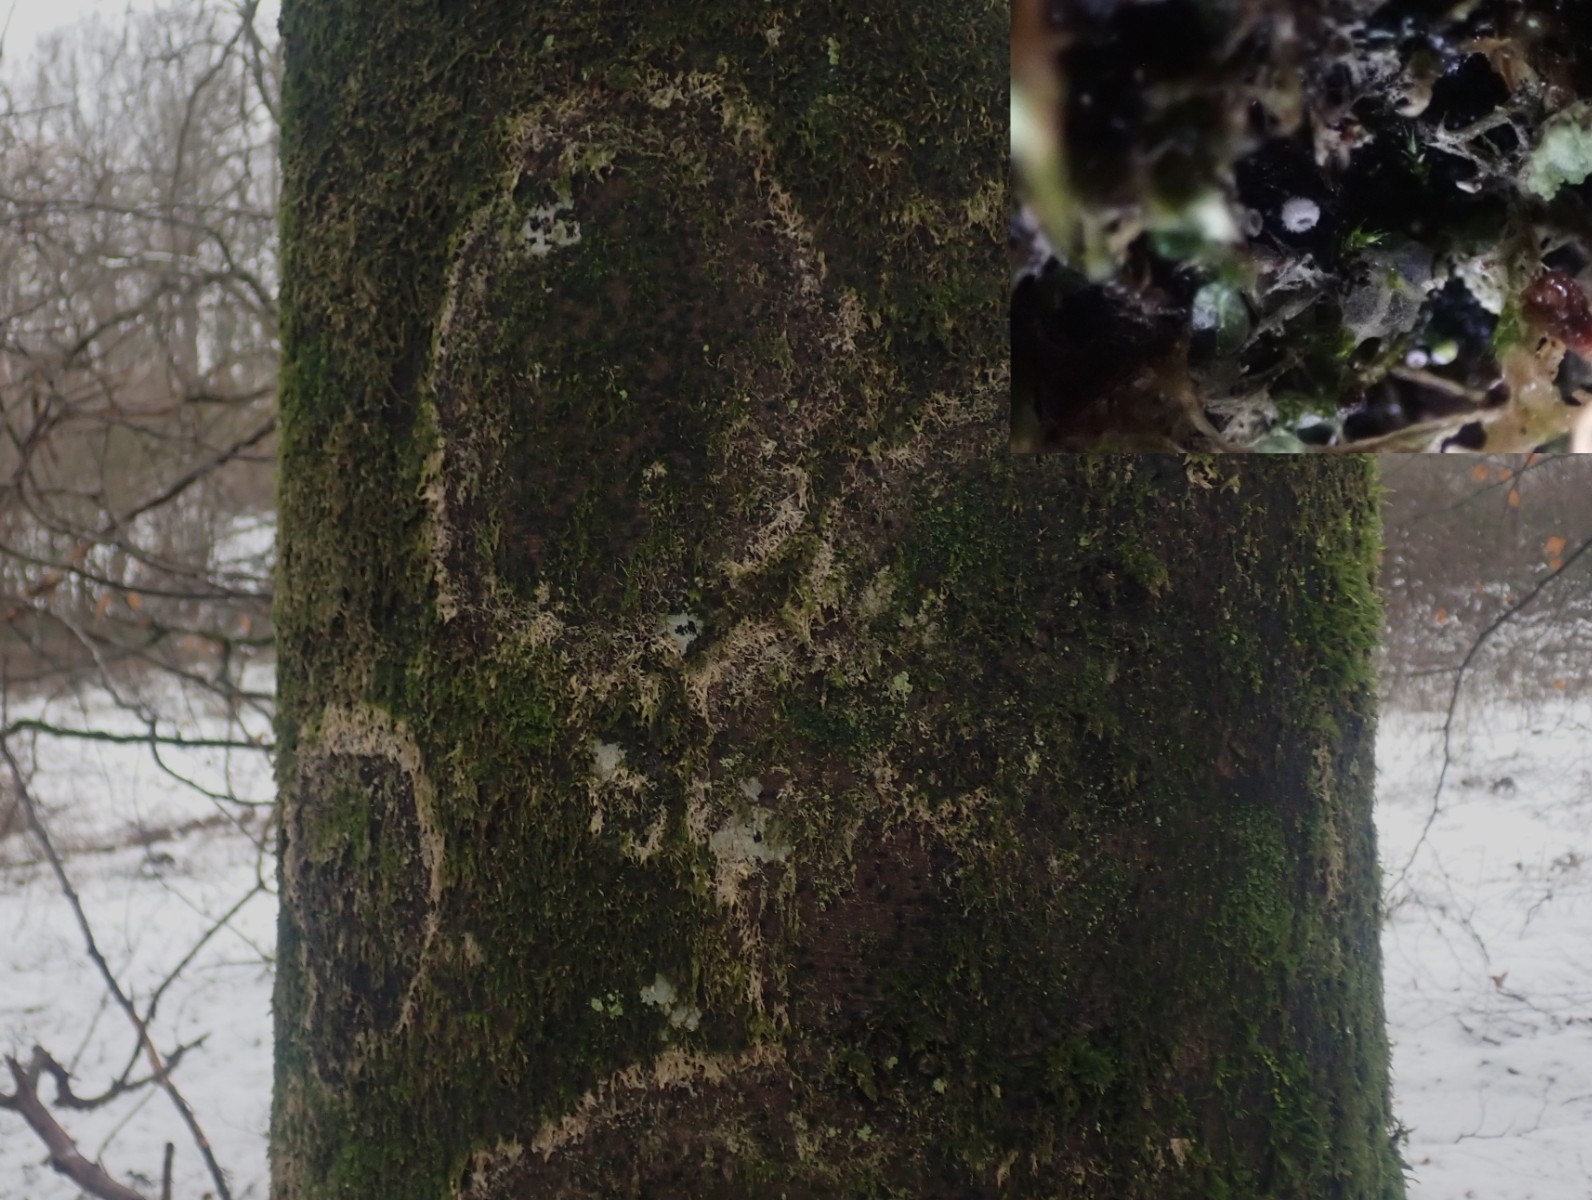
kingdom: Fungi
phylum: Basidiomycota
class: Agaricomycetes
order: Agaricales
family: Chromocyphellaceae
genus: Chromocyphella
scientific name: Chromocyphella muscicola
